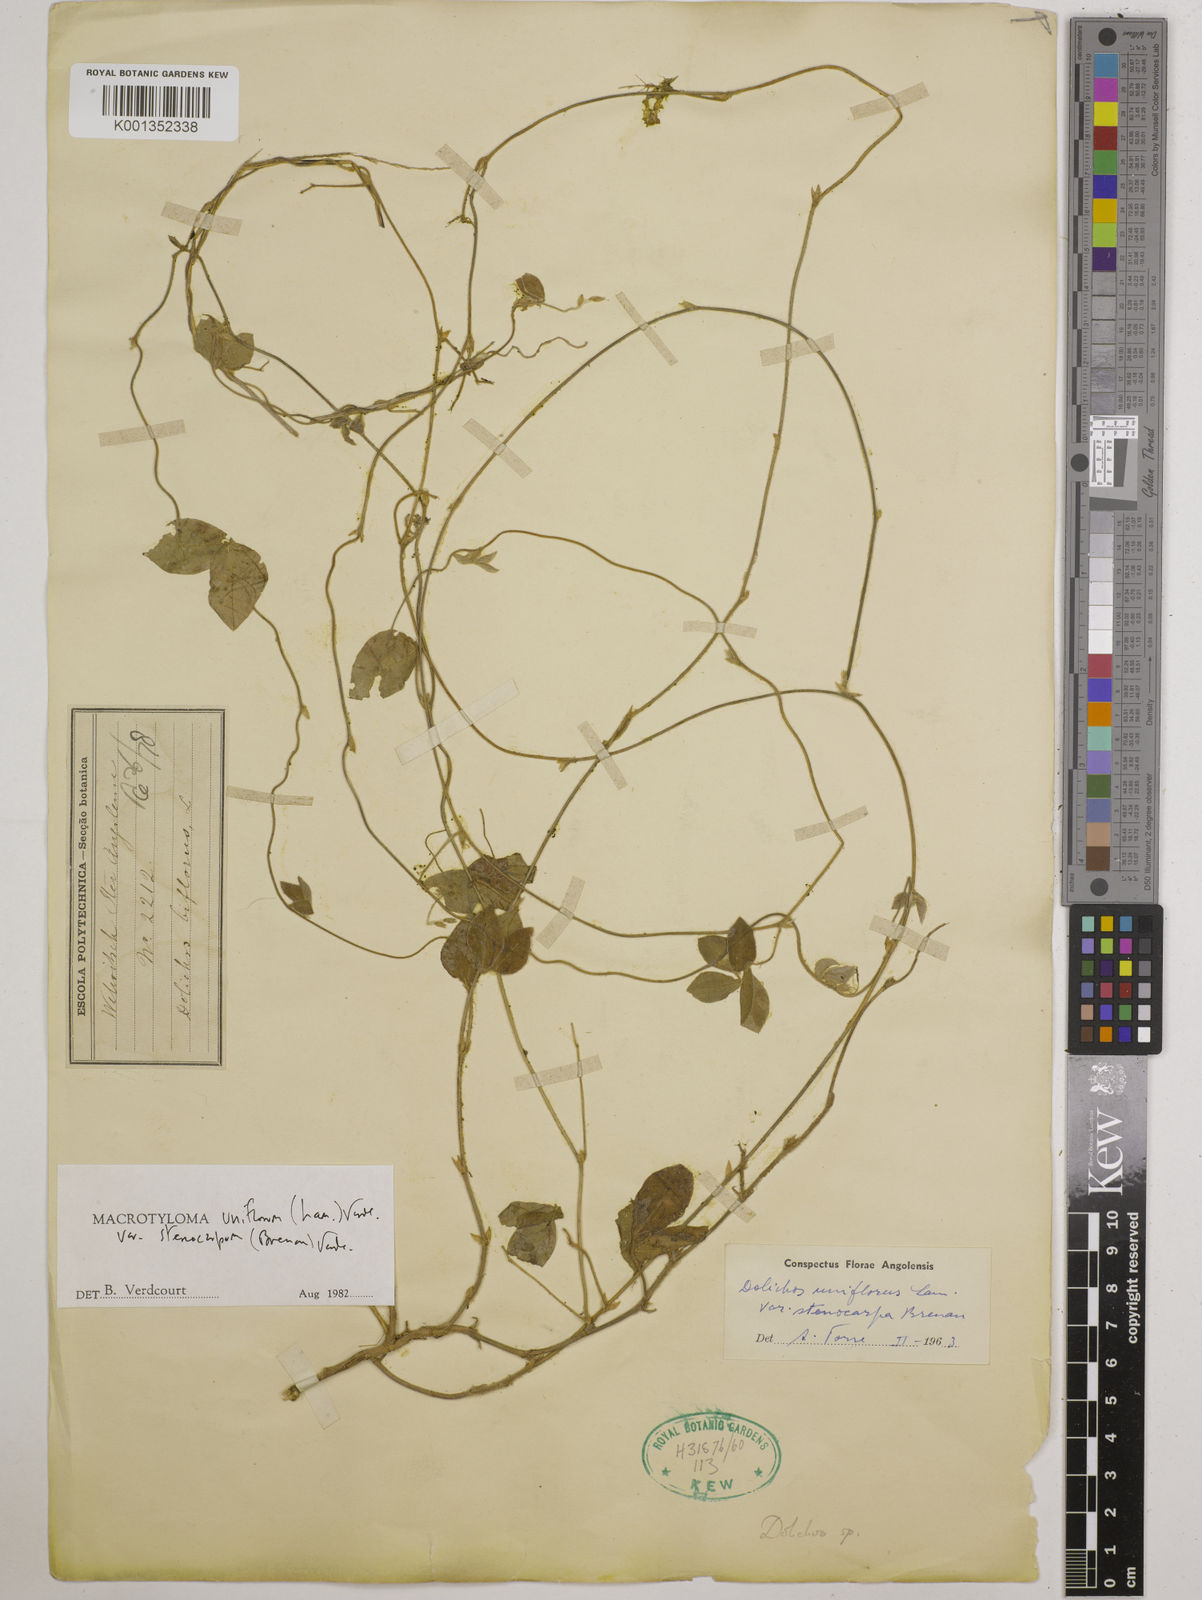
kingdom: Plantae
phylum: Tracheophyta
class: Magnoliopsida
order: Fabales
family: Fabaceae
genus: Macrotyloma
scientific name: Macrotyloma
